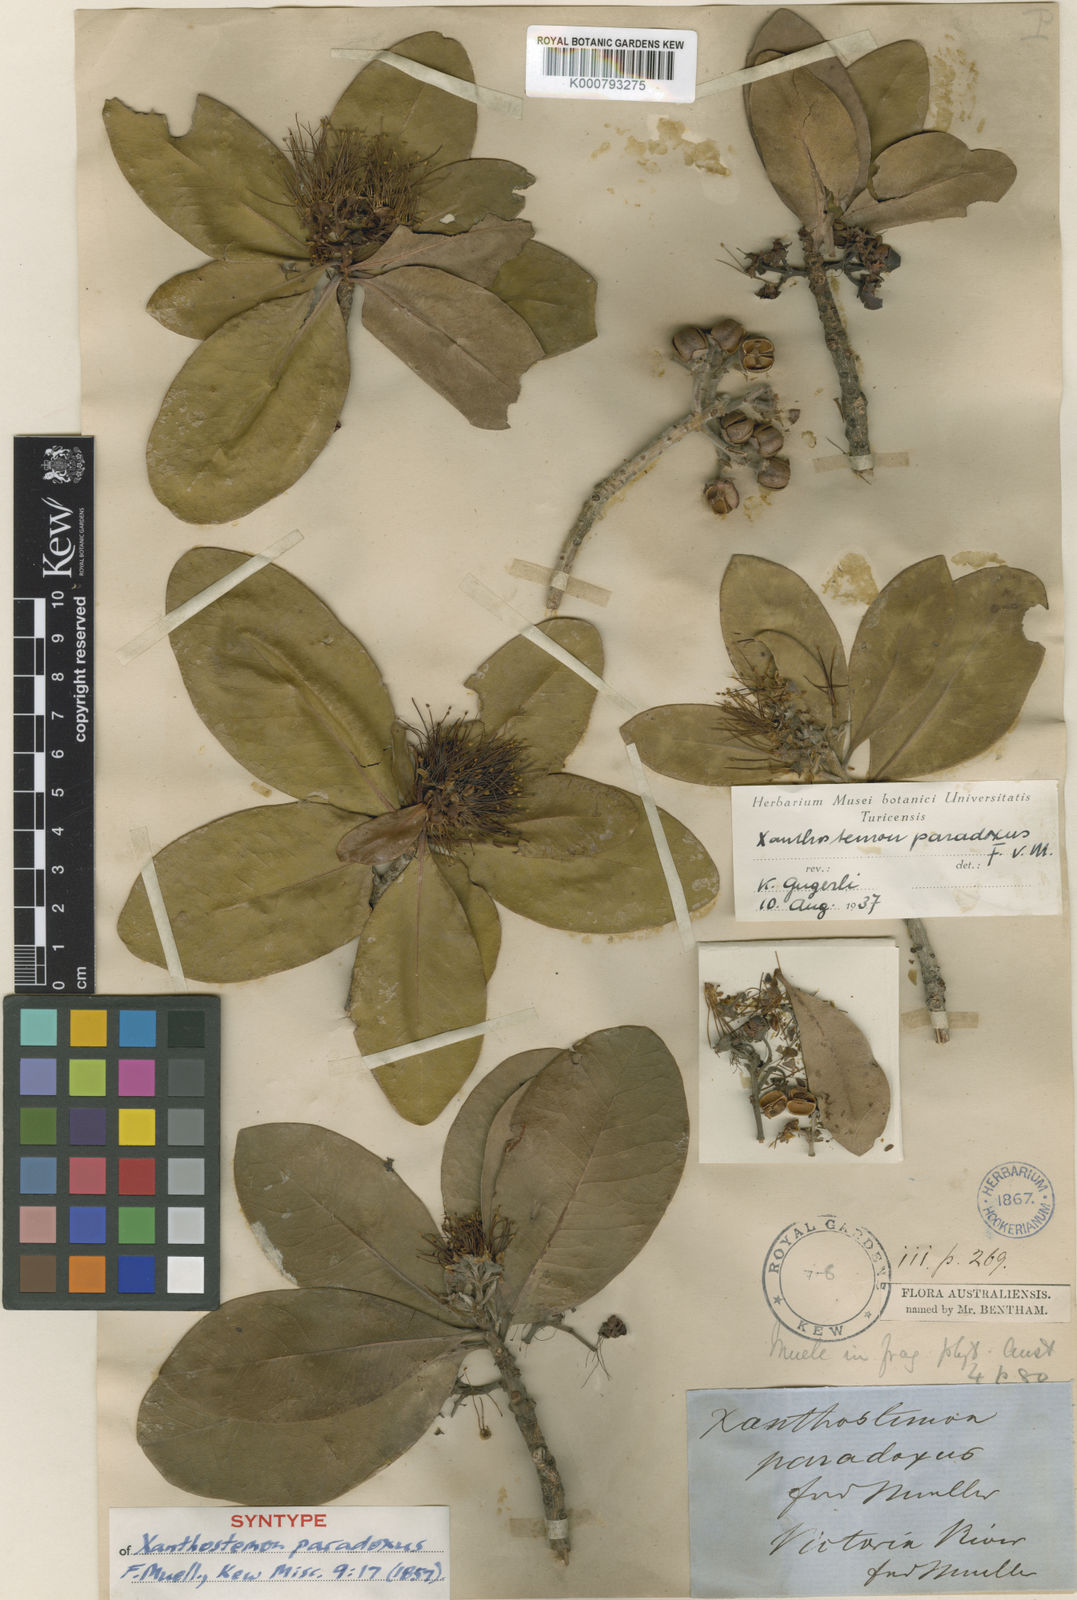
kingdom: Plantae
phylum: Tracheophyta
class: Magnoliopsida
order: Myrtales
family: Myrtaceae
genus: Xanthostemon
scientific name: Xanthostemon paradoxus
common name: Northern penda
